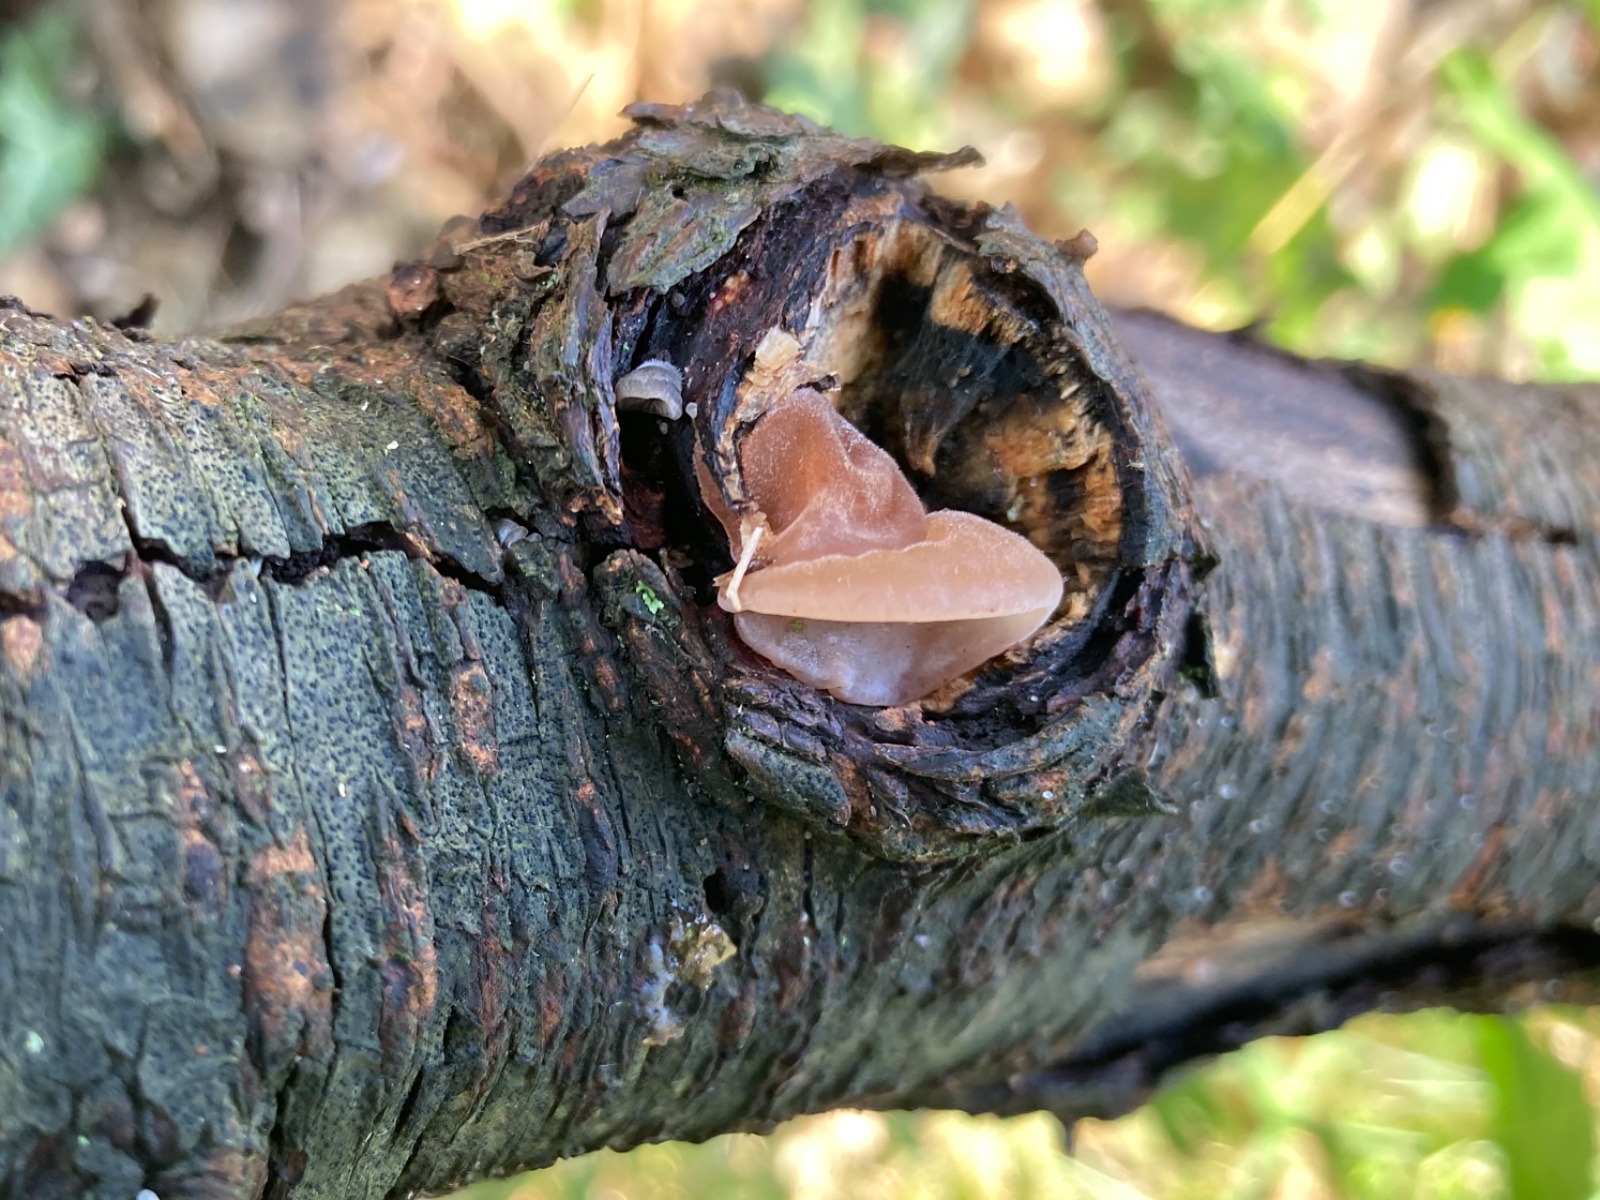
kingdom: Fungi
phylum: Basidiomycota
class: Agaricomycetes
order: Auriculariales
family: Auriculariaceae
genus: Auricularia
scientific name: Auricularia auricula-judae
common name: almindelig judasøre
